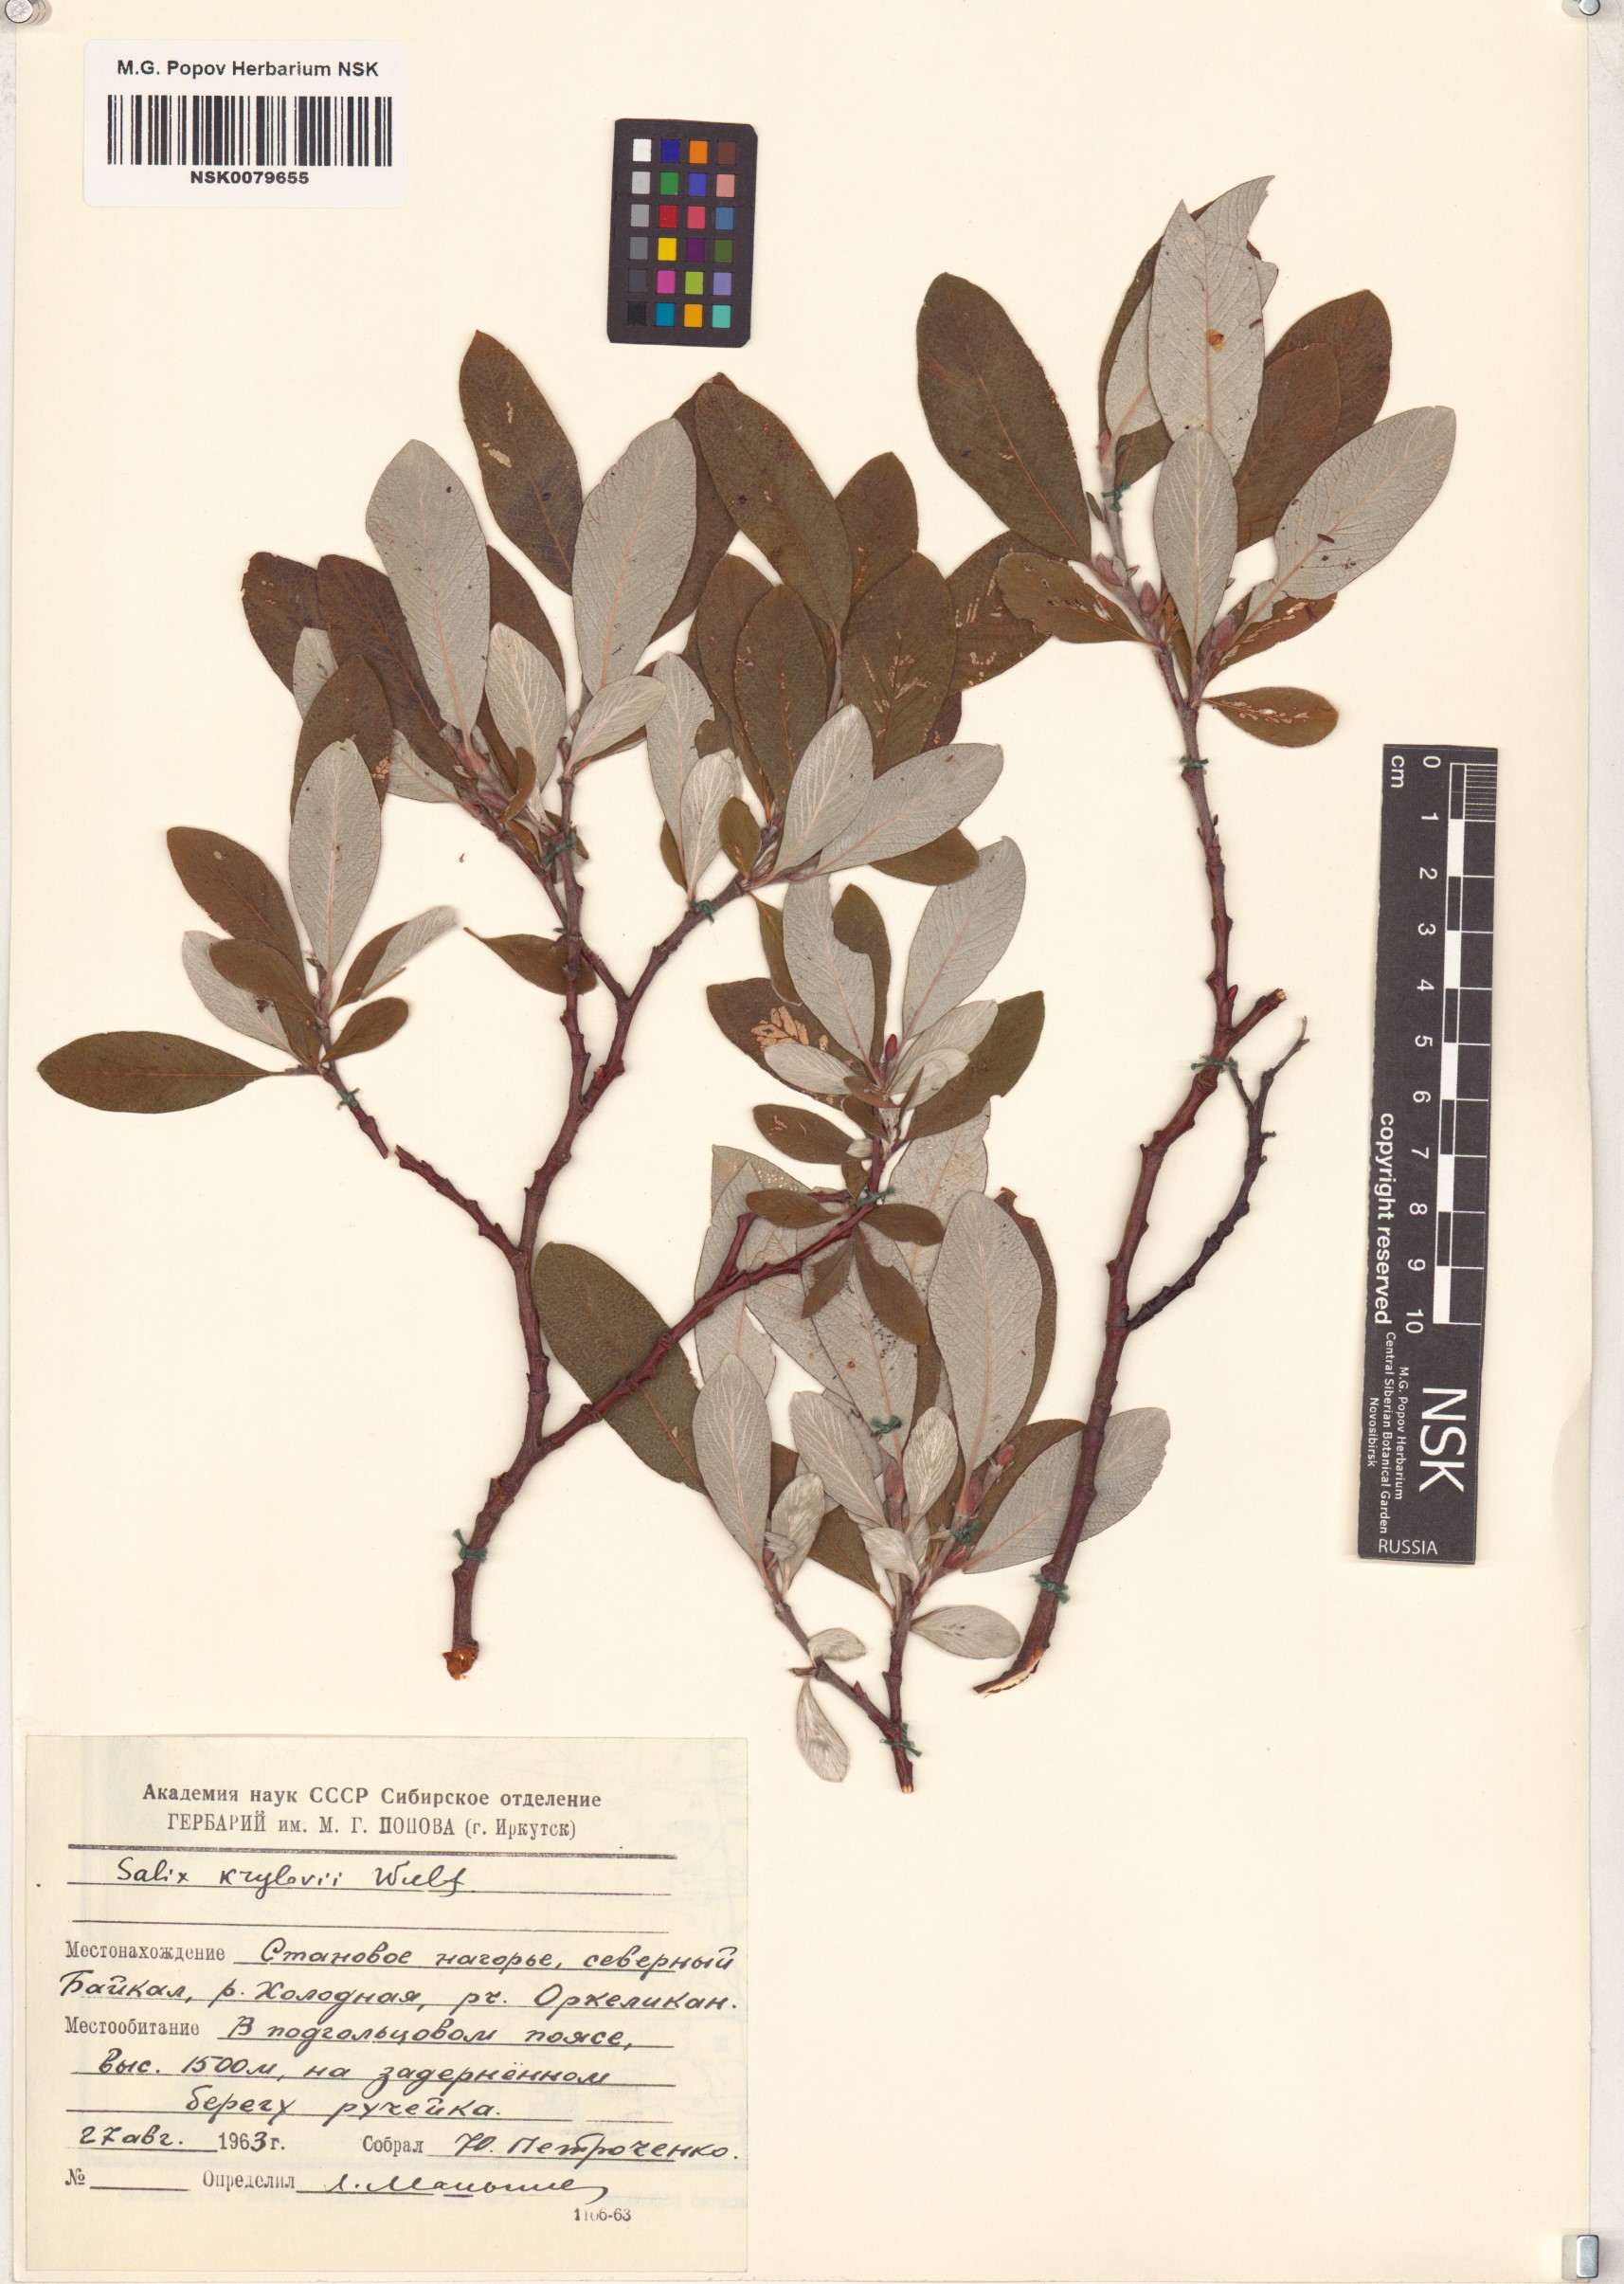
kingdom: Plantae
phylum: Tracheophyta
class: Magnoliopsida
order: Malpighiales
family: Salicaceae
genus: Salix
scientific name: Salix krylovii
